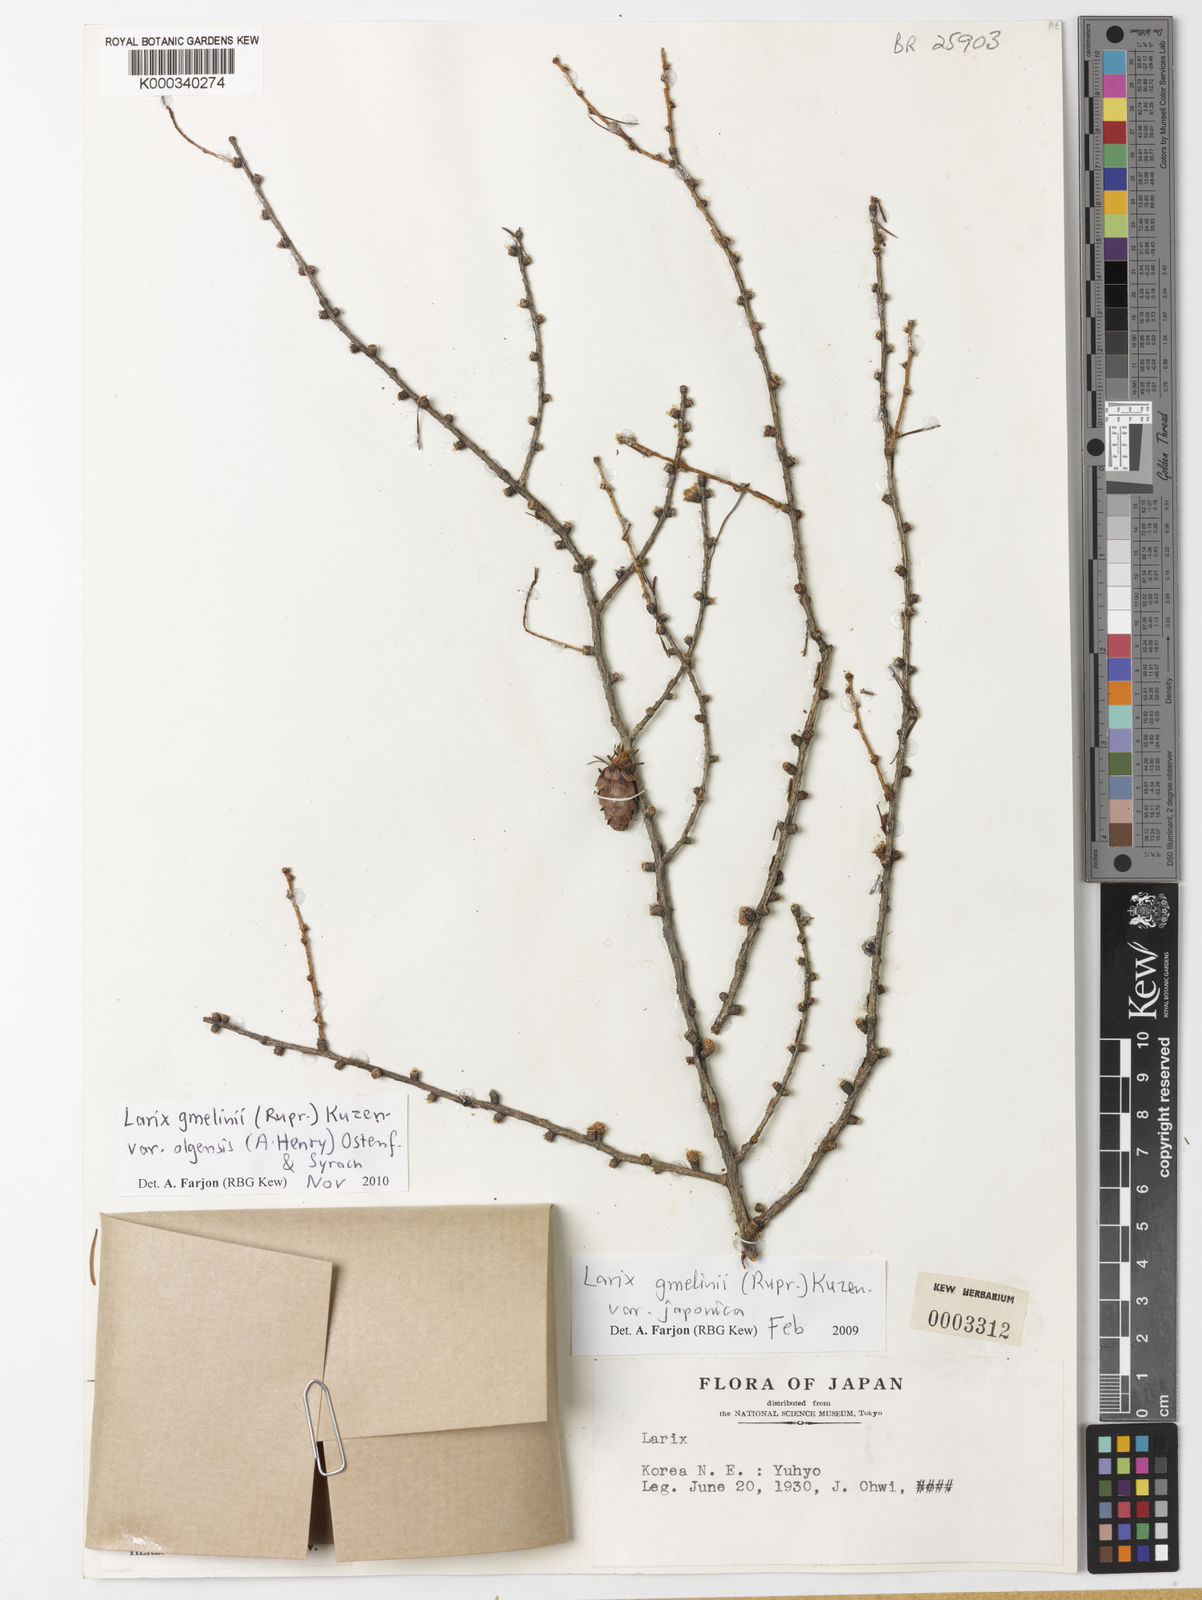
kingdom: Plantae
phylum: Tracheophyta
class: Pinopsida
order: Pinales
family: Pinaceae
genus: Larix
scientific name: Larix gmelinii
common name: Dahurian larch
